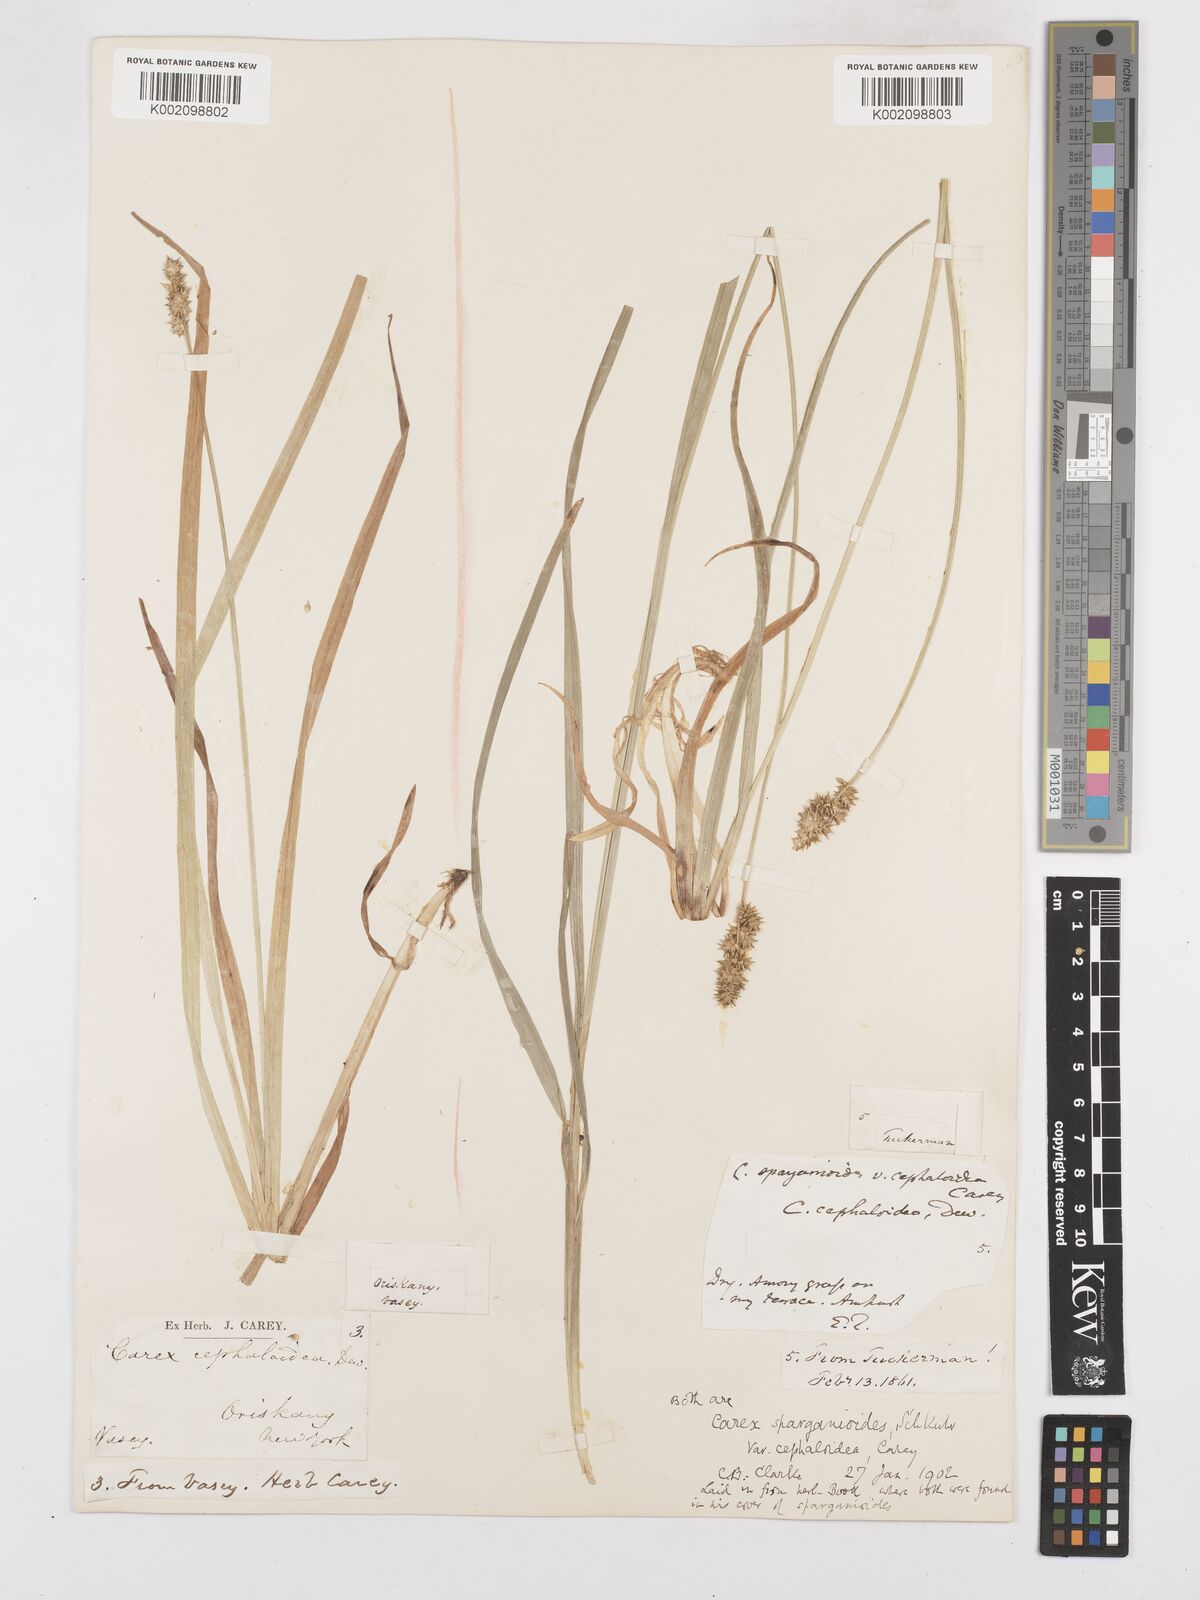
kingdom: Plantae
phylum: Tracheophyta
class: Liliopsida
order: Poales
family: Cyperaceae
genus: Carex
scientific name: Carex sparganioides
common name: Burreed sedge
